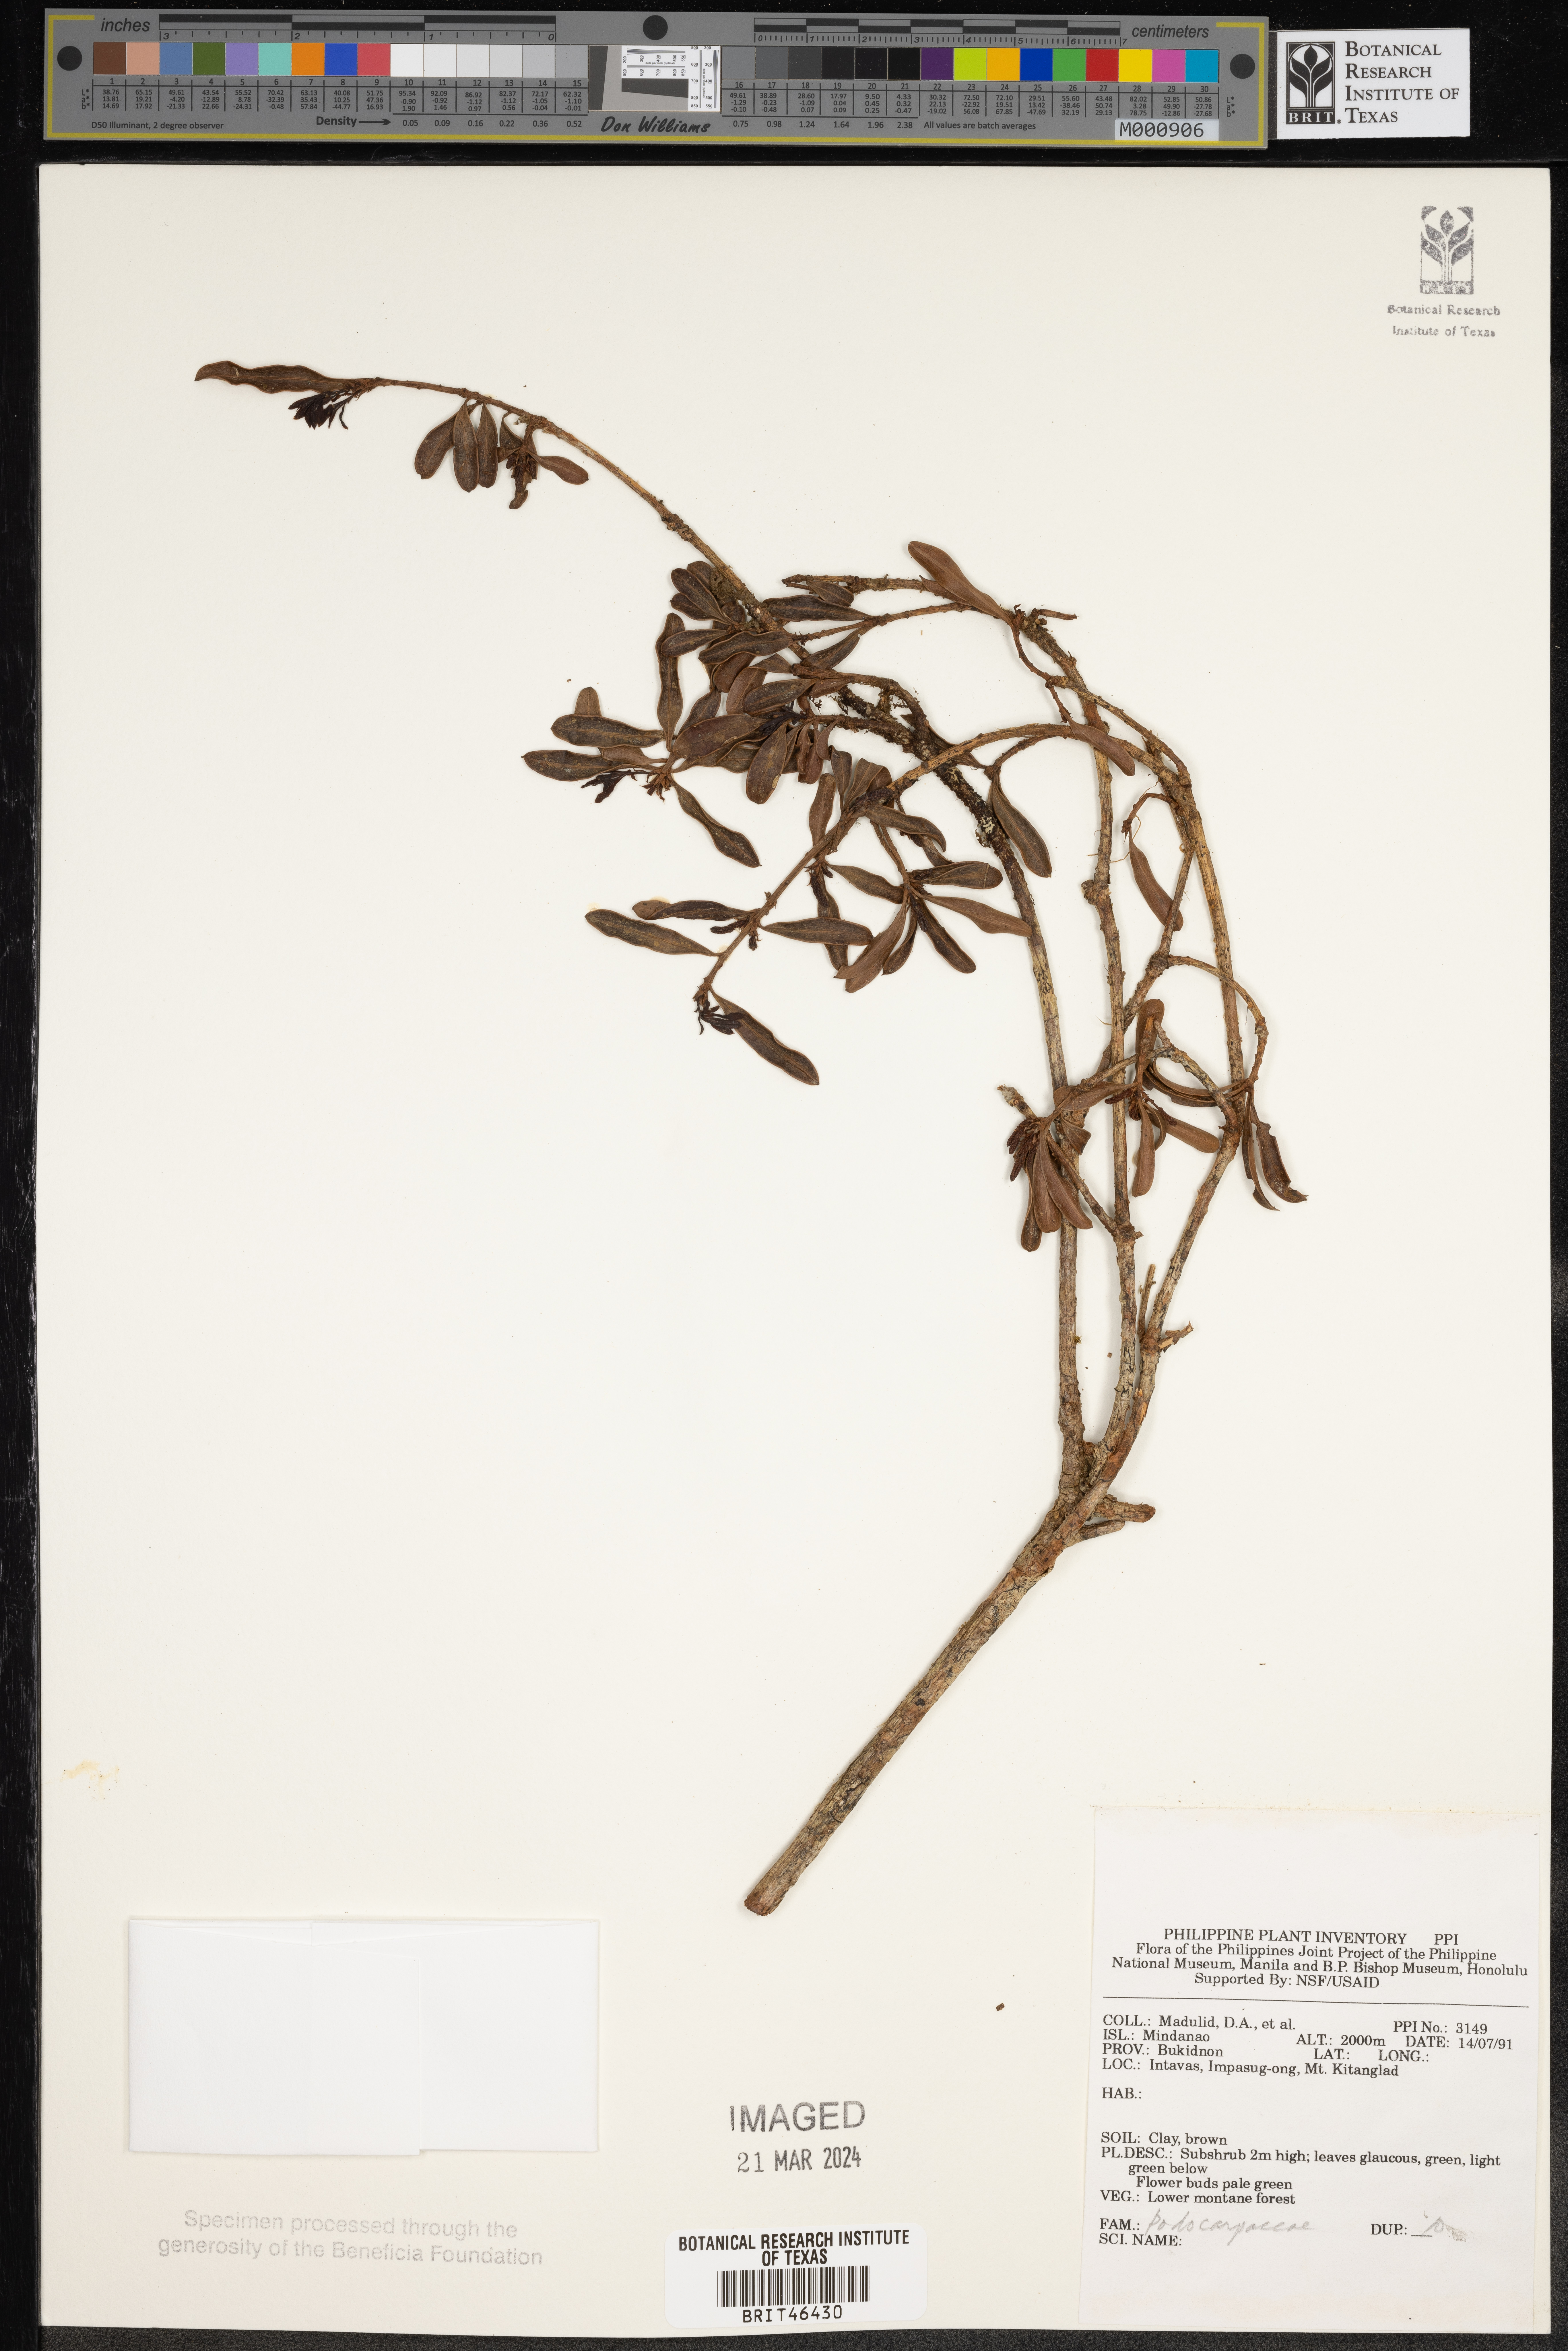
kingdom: Plantae
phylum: Tracheophyta
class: Pinopsida
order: Pinales
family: Podocarpaceae
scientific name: Podocarpaceae
